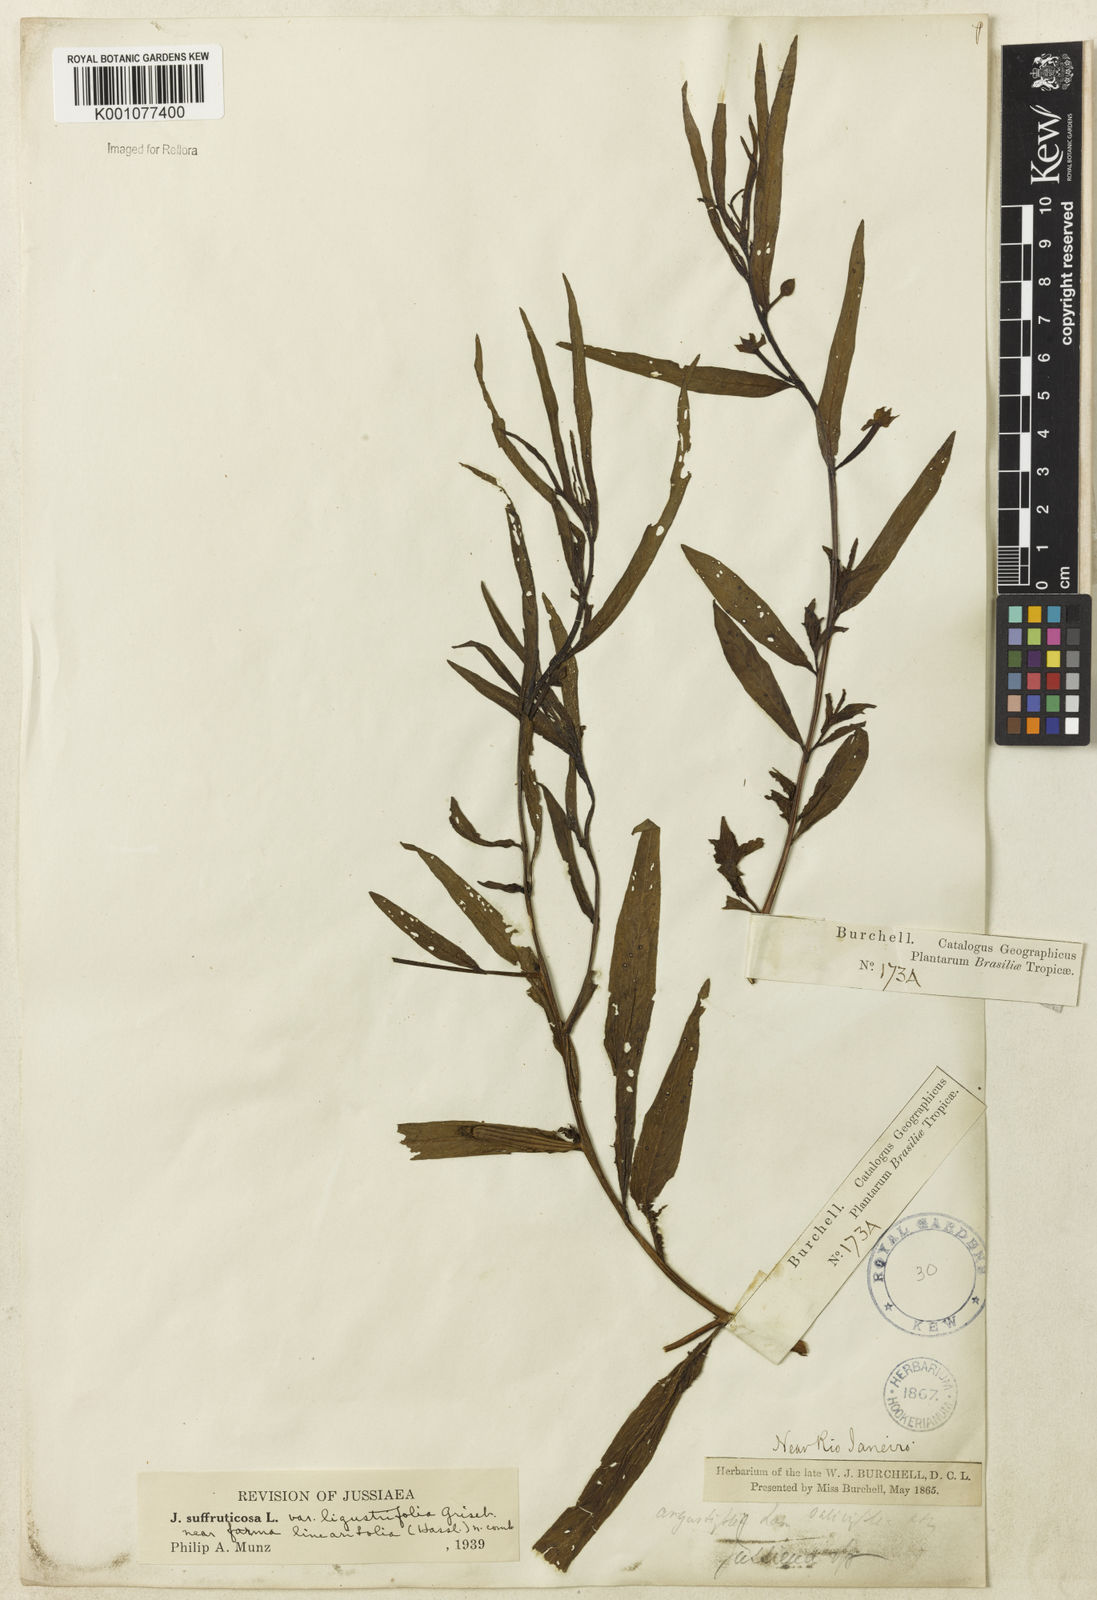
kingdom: Plantae
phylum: Tracheophyta
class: Magnoliopsida
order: Myrtales
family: Onagraceae
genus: Ludwigia
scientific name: Ludwigia octovalvis
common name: Water-primrose
